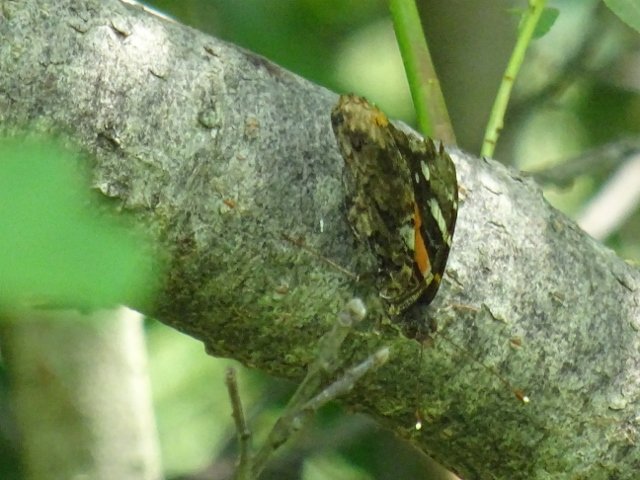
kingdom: Animalia
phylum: Arthropoda
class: Insecta
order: Lepidoptera
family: Nymphalidae
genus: Vanessa
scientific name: Vanessa atalanta
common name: Red Admiral
